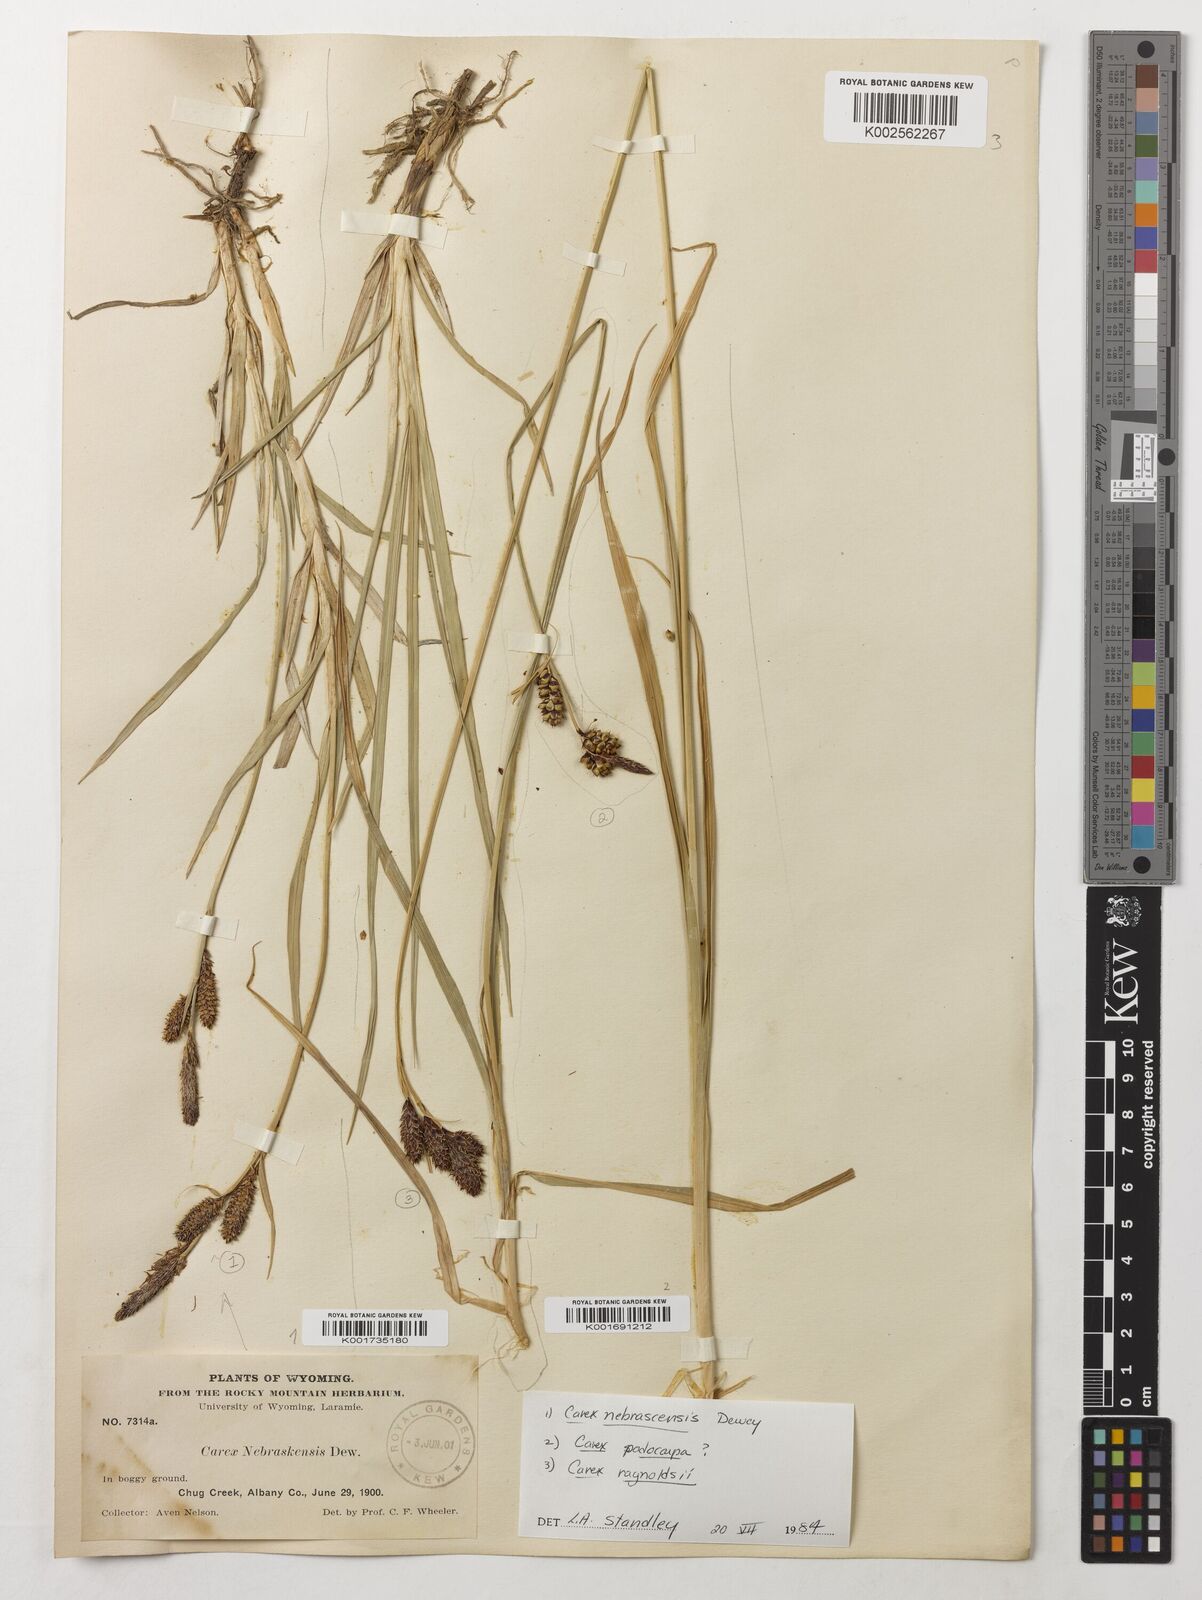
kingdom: Plantae
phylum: Tracheophyta
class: Liliopsida
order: Poales
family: Cyperaceae
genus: Carex
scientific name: Carex podocarpa
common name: Alpine sedge
